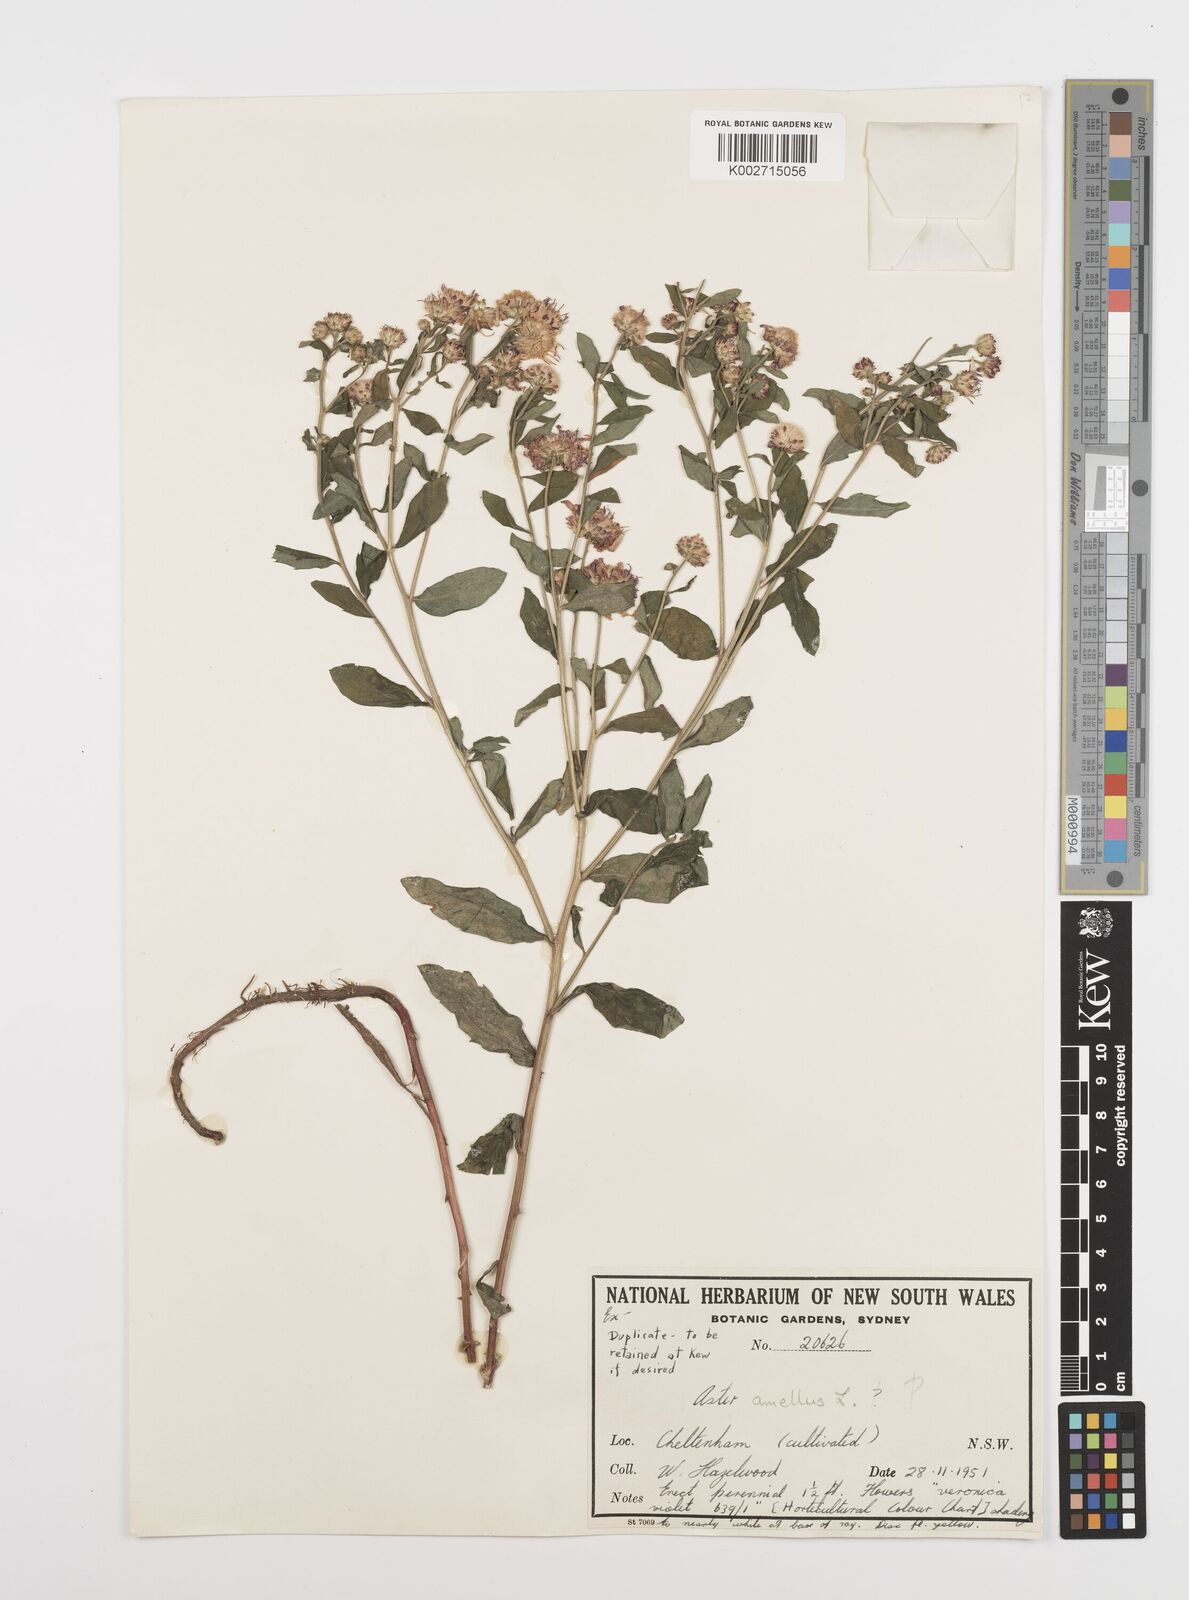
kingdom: Plantae
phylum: Tracheophyta
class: Magnoliopsida
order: Asterales
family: Asteraceae
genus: Aster
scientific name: Aster amellus
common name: European michaelmas daisy
